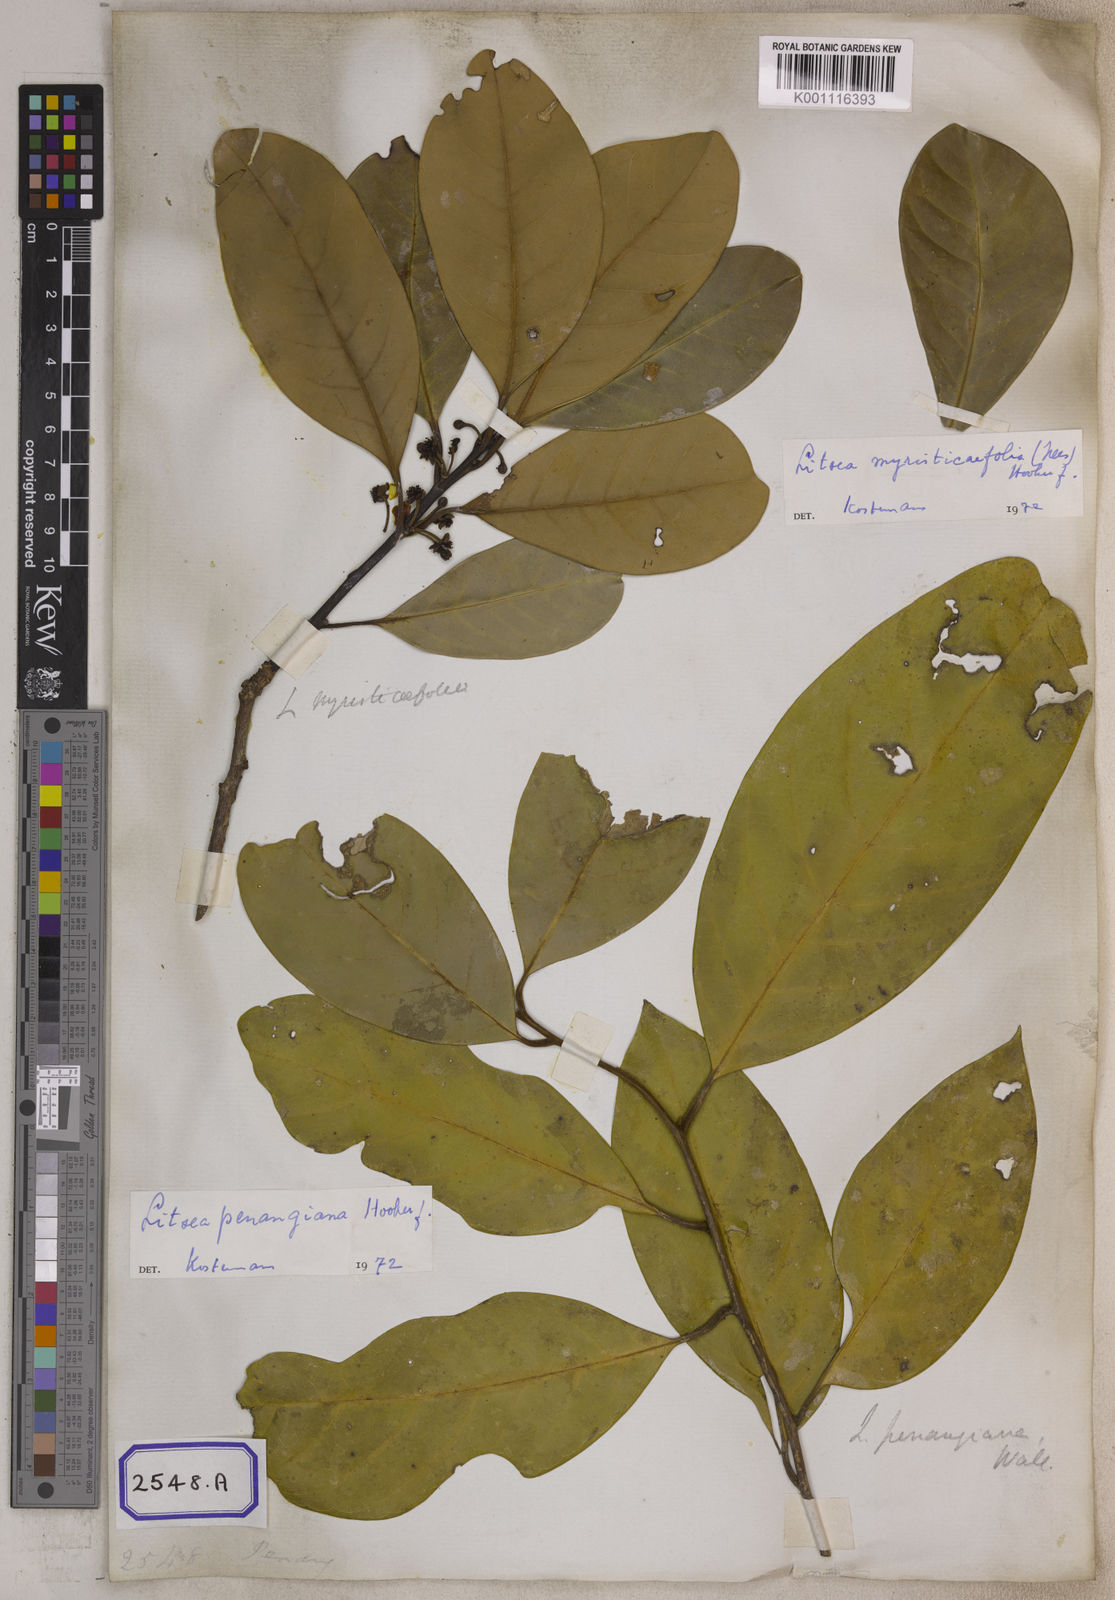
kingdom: Plantae
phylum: Tracheophyta
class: Magnoliopsida
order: Laurales
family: Lauraceae
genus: Litsea
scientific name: Litsea
